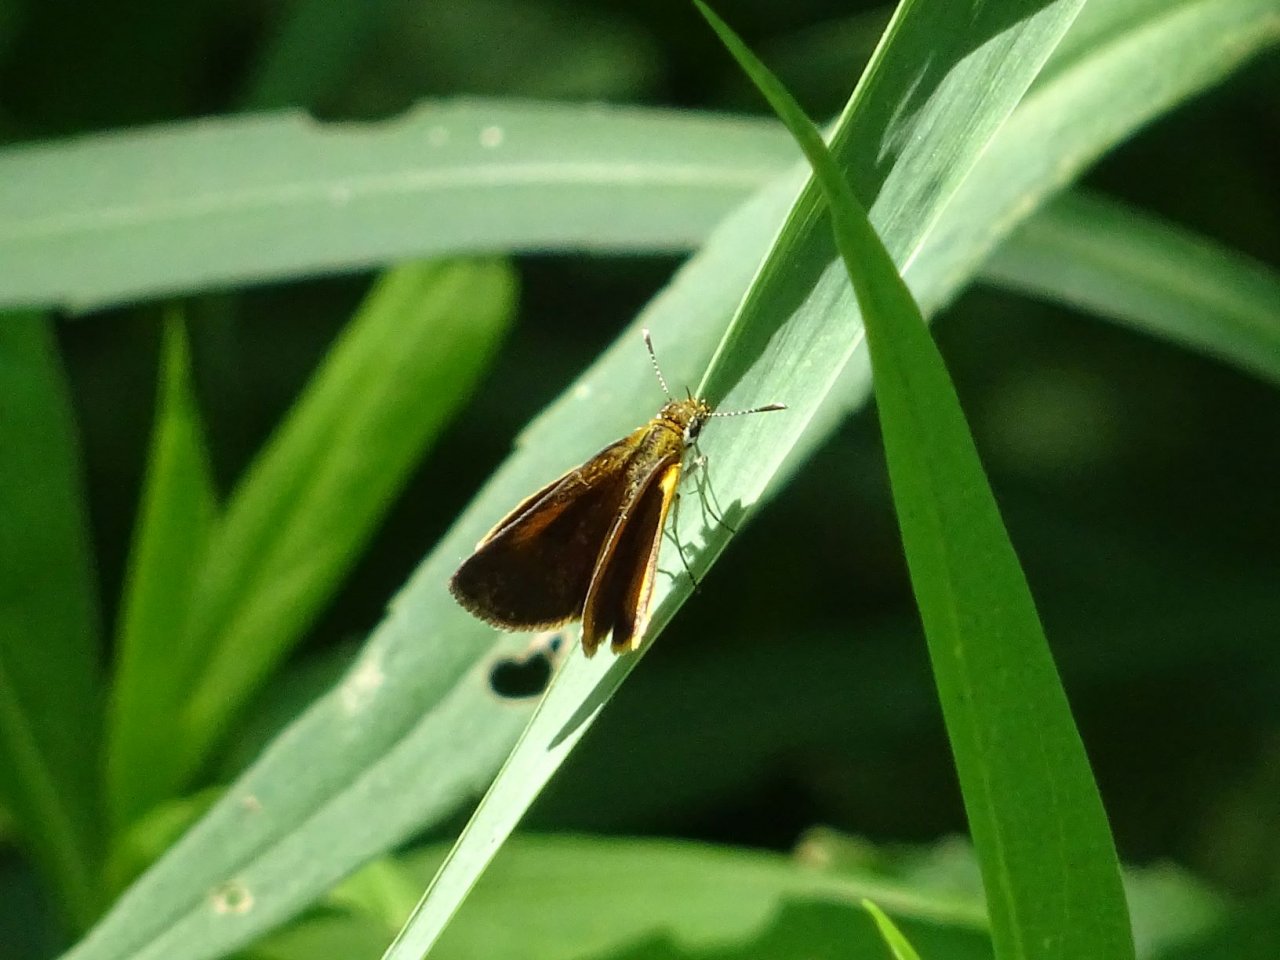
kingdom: Animalia
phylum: Arthropoda
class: Insecta
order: Lepidoptera
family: Hesperiidae
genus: Ancyloxypha
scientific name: Ancyloxypha numitor
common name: Least Skipper
